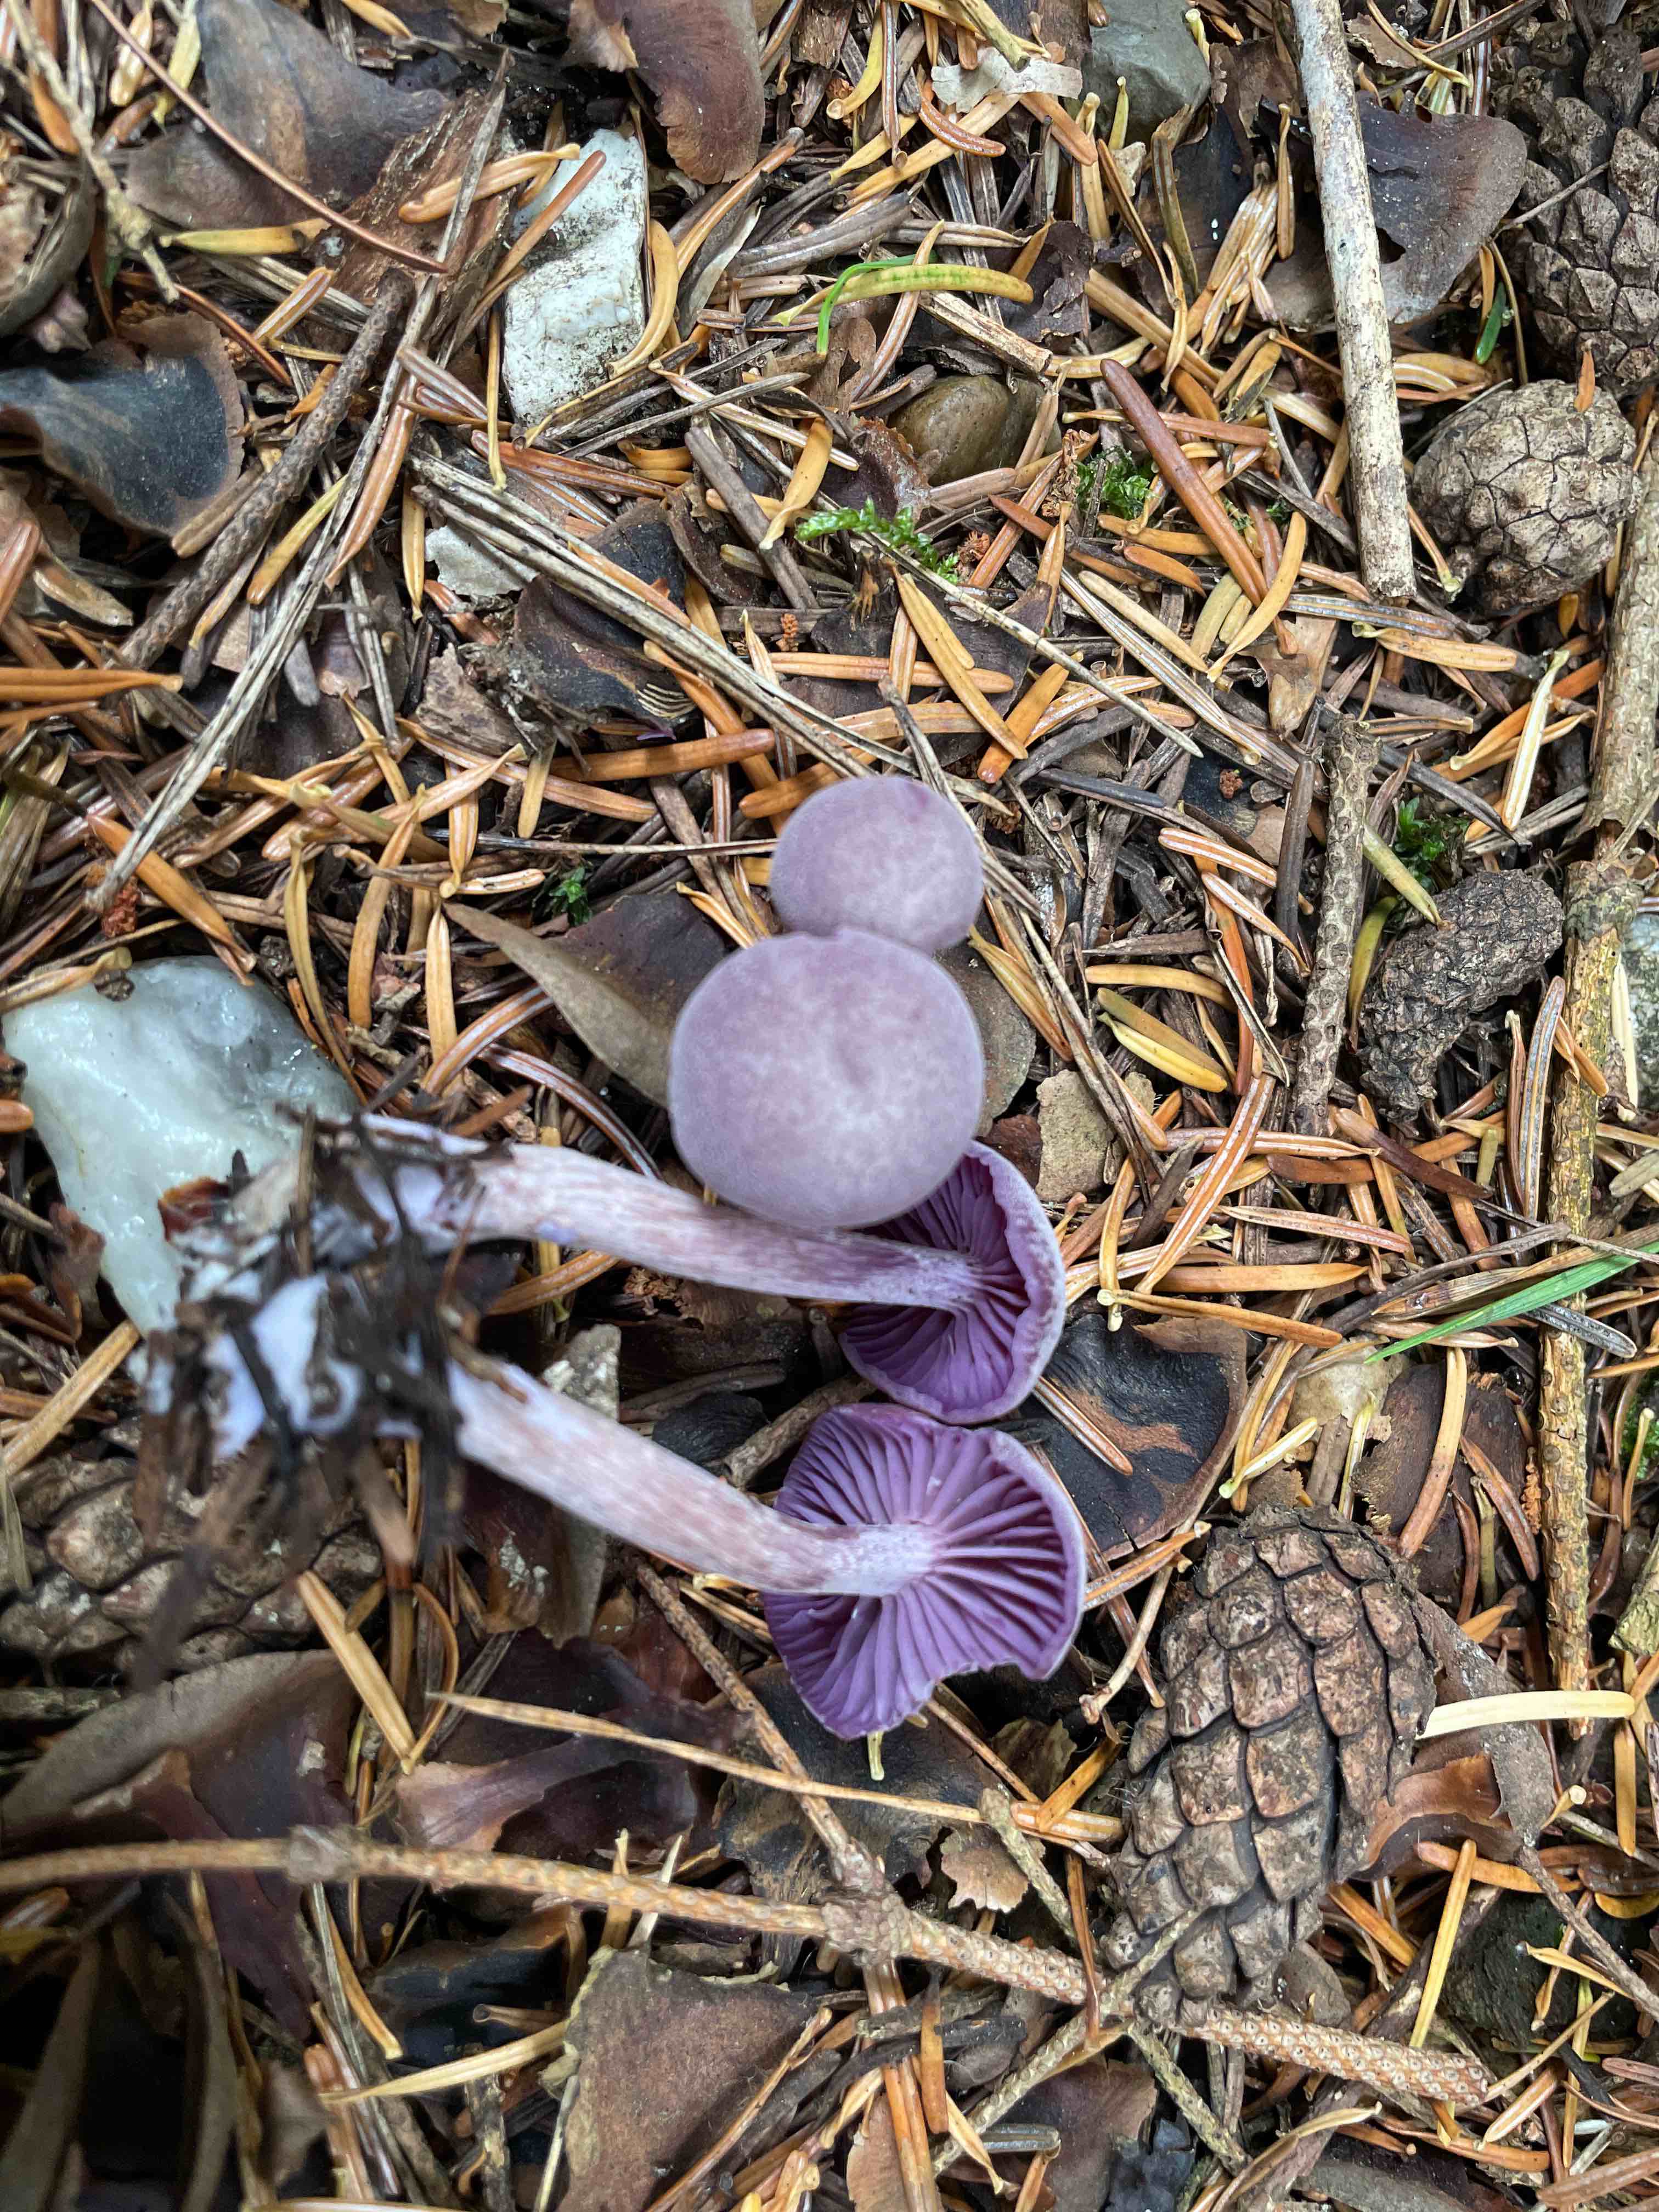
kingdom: Fungi
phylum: Basidiomycota
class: Agaricomycetes
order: Agaricales
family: Hydnangiaceae
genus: Laccaria
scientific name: Laccaria amethystina
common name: violet ametysthat
